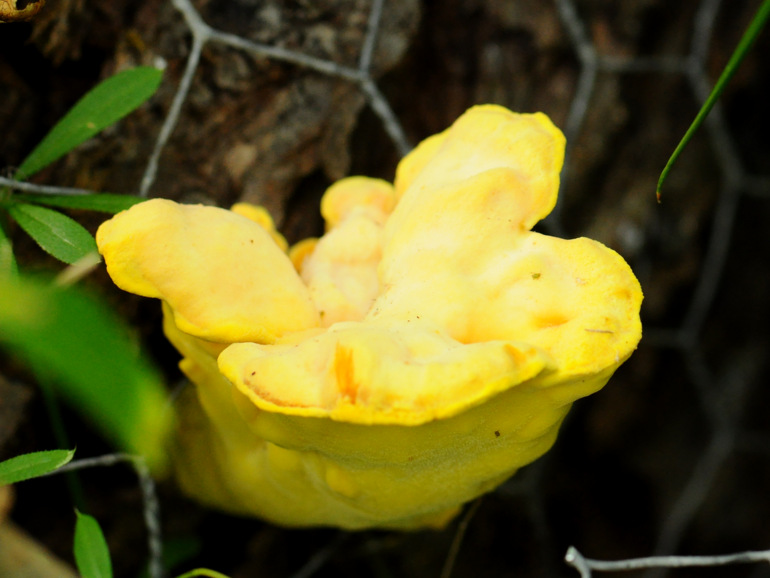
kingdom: Fungi
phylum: Basidiomycota
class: Agaricomycetes
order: Polyporales
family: Laetiporaceae
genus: Laetiporus
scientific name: Laetiporus sulphureus
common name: svovlporesvamp
